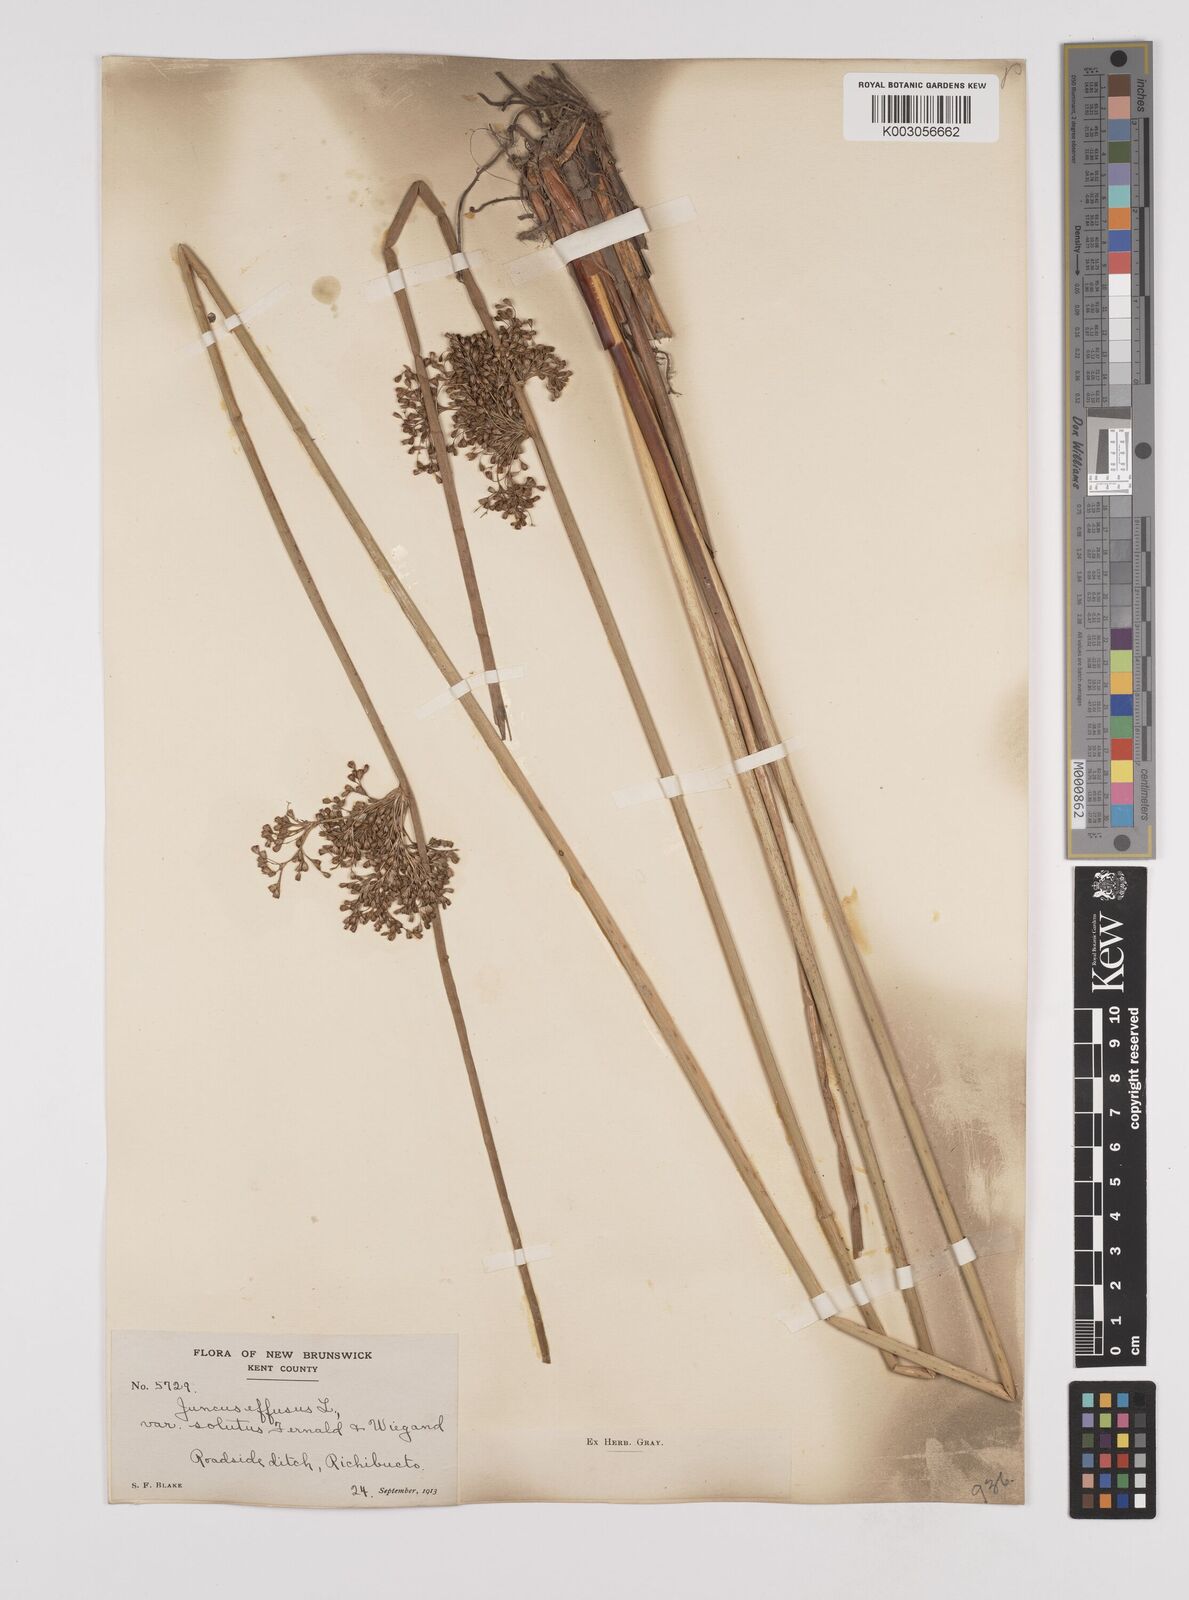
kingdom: Plantae
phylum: Tracheophyta
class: Liliopsida
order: Poales
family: Juncaceae
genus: Juncus
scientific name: Juncus effusus
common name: Soft rush
